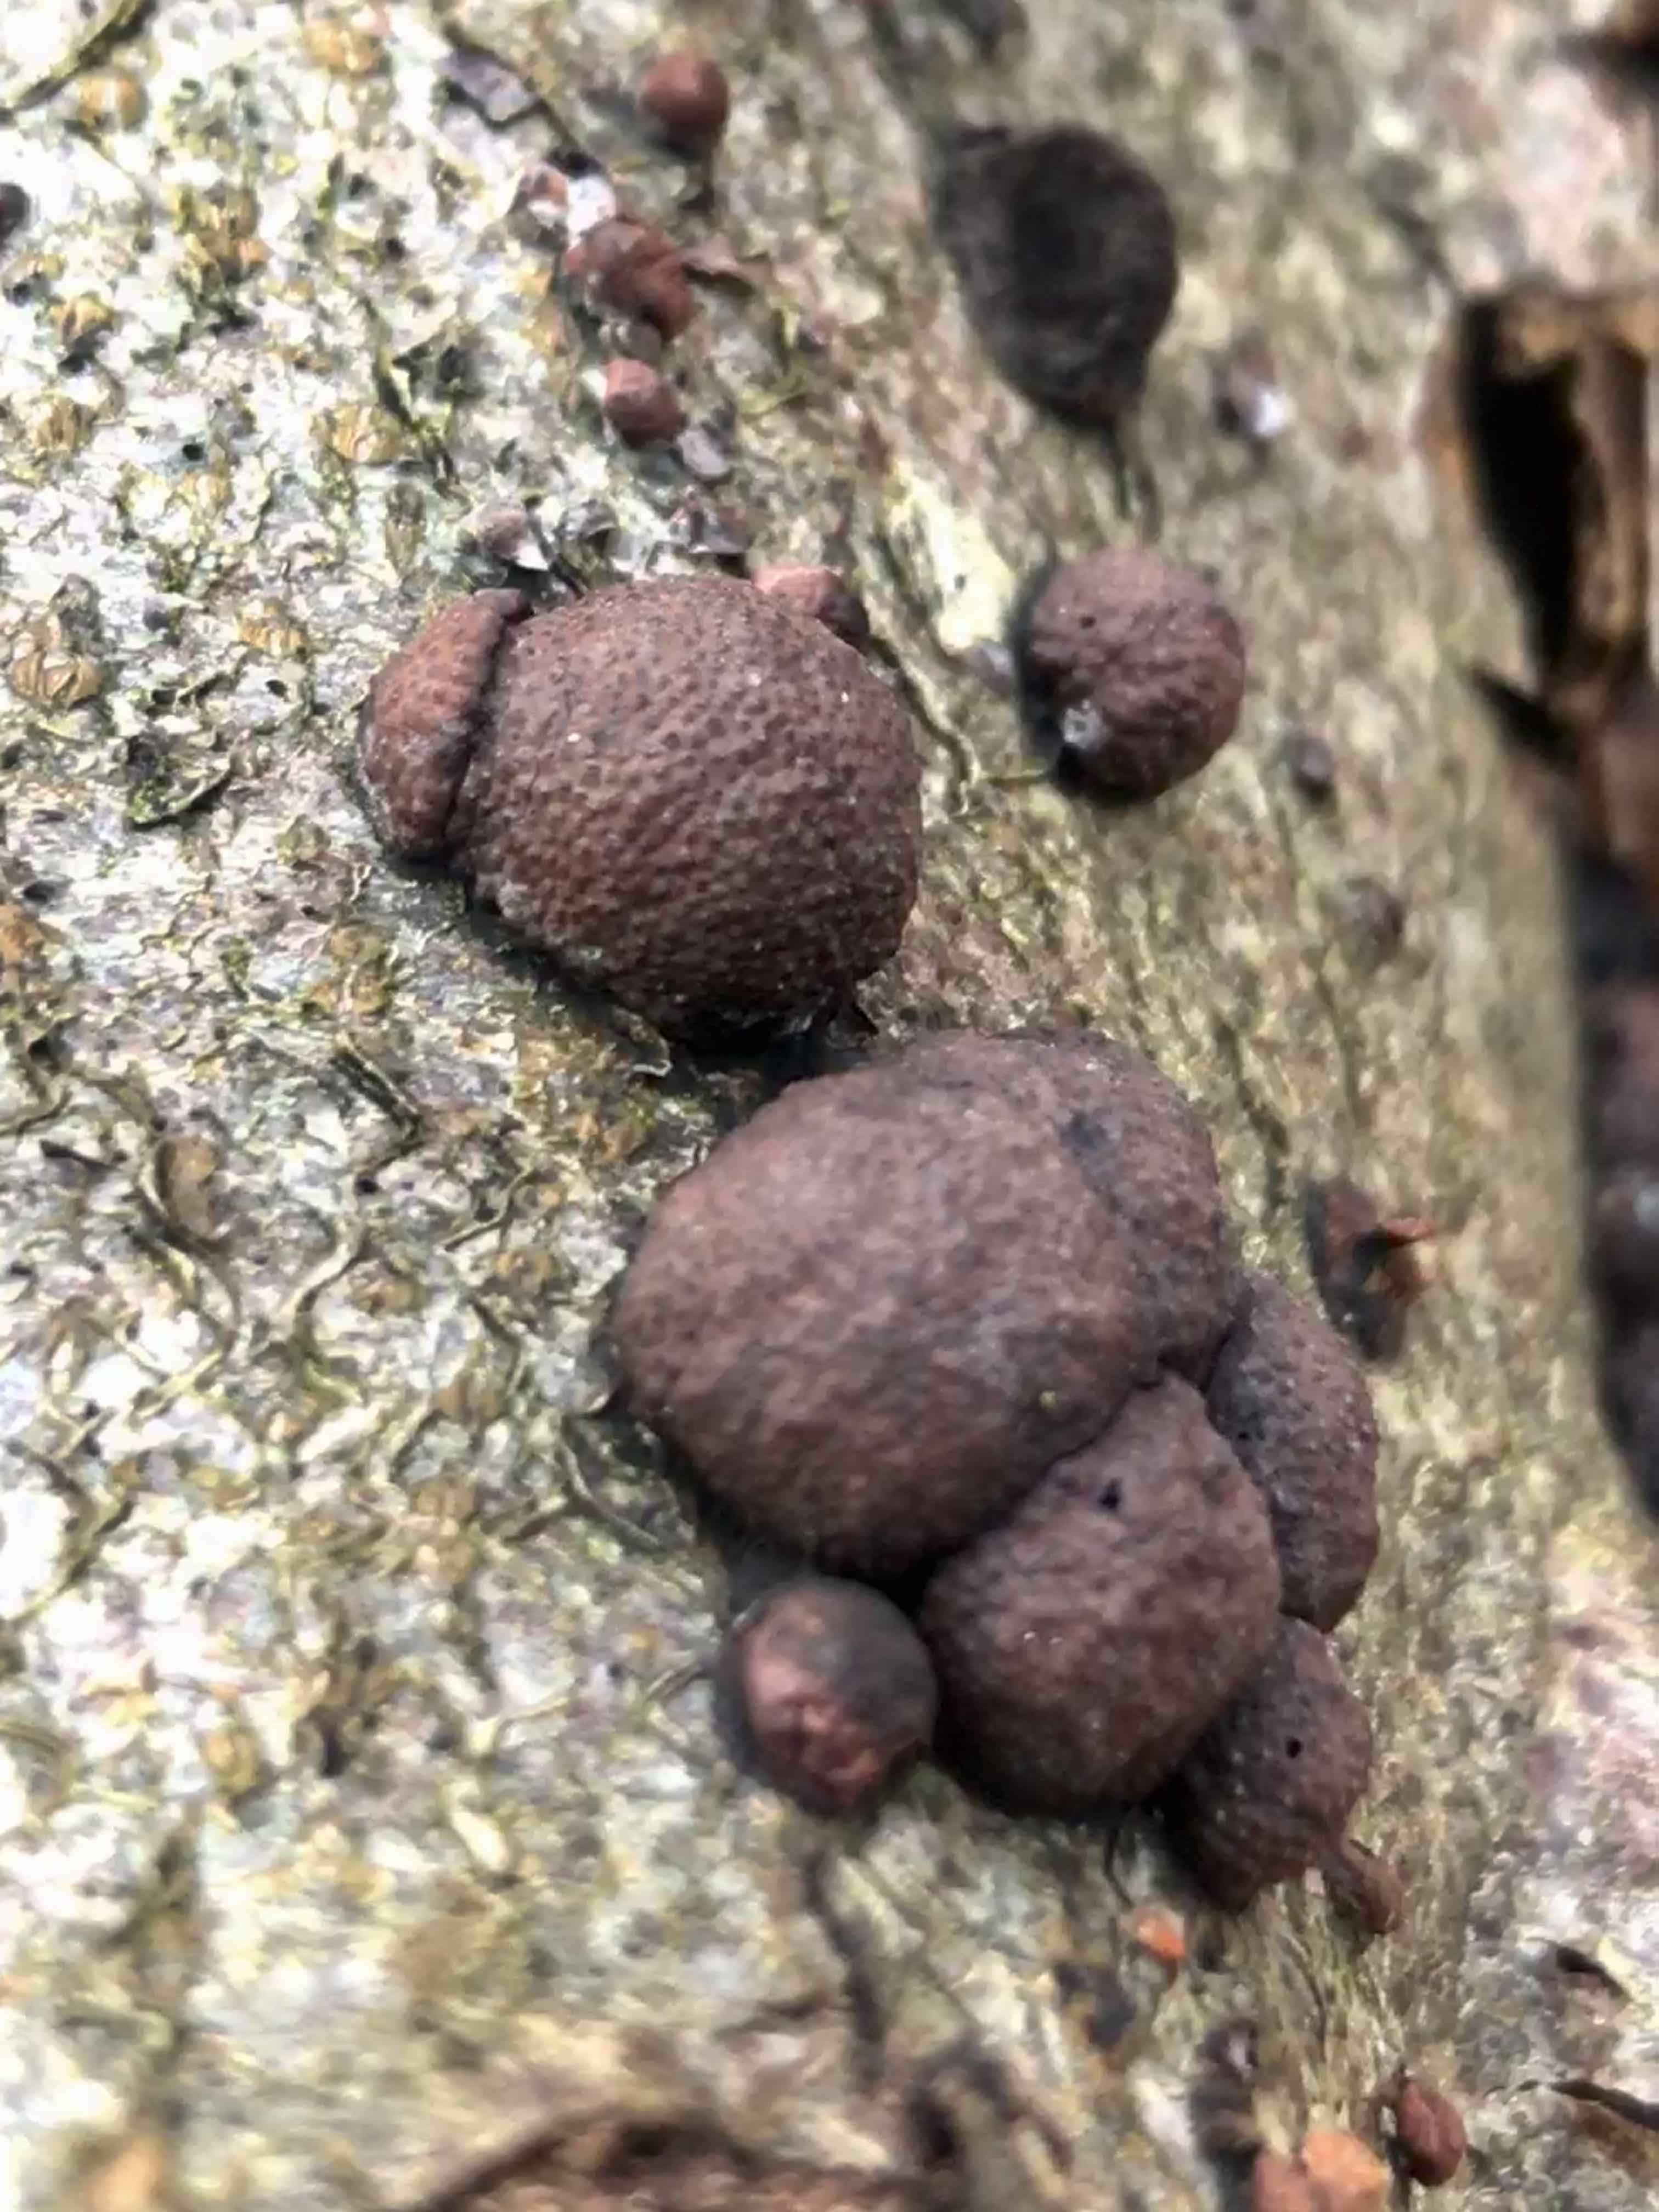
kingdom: Fungi
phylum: Ascomycota
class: Sordariomycetes
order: Xylariales
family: Hypoxylaceae
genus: Hypoxylon
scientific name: Hypoxylon fragiforme
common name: kuljordbær
